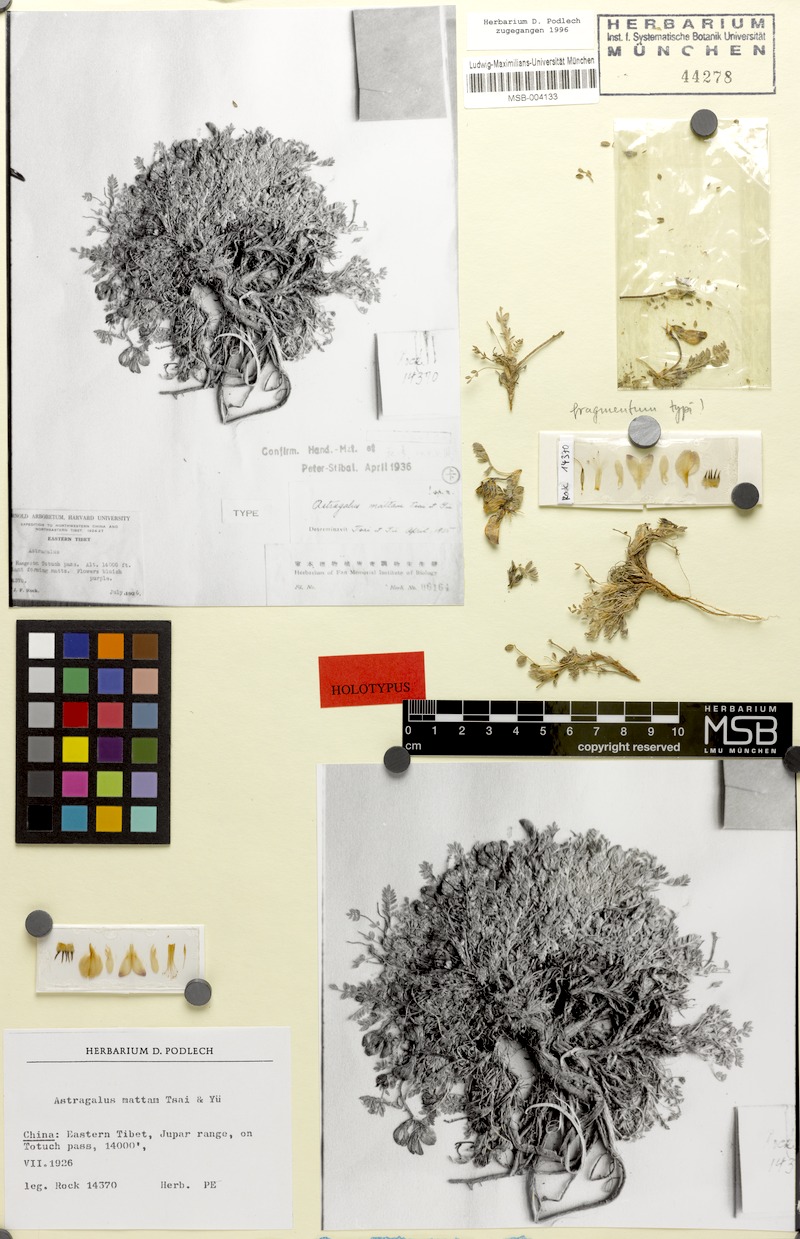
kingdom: Plantae
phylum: Tracheophyta
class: Magnoliopsida
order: Fabales
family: Fabaceae
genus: Astragalus
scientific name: Astragalus mattam
